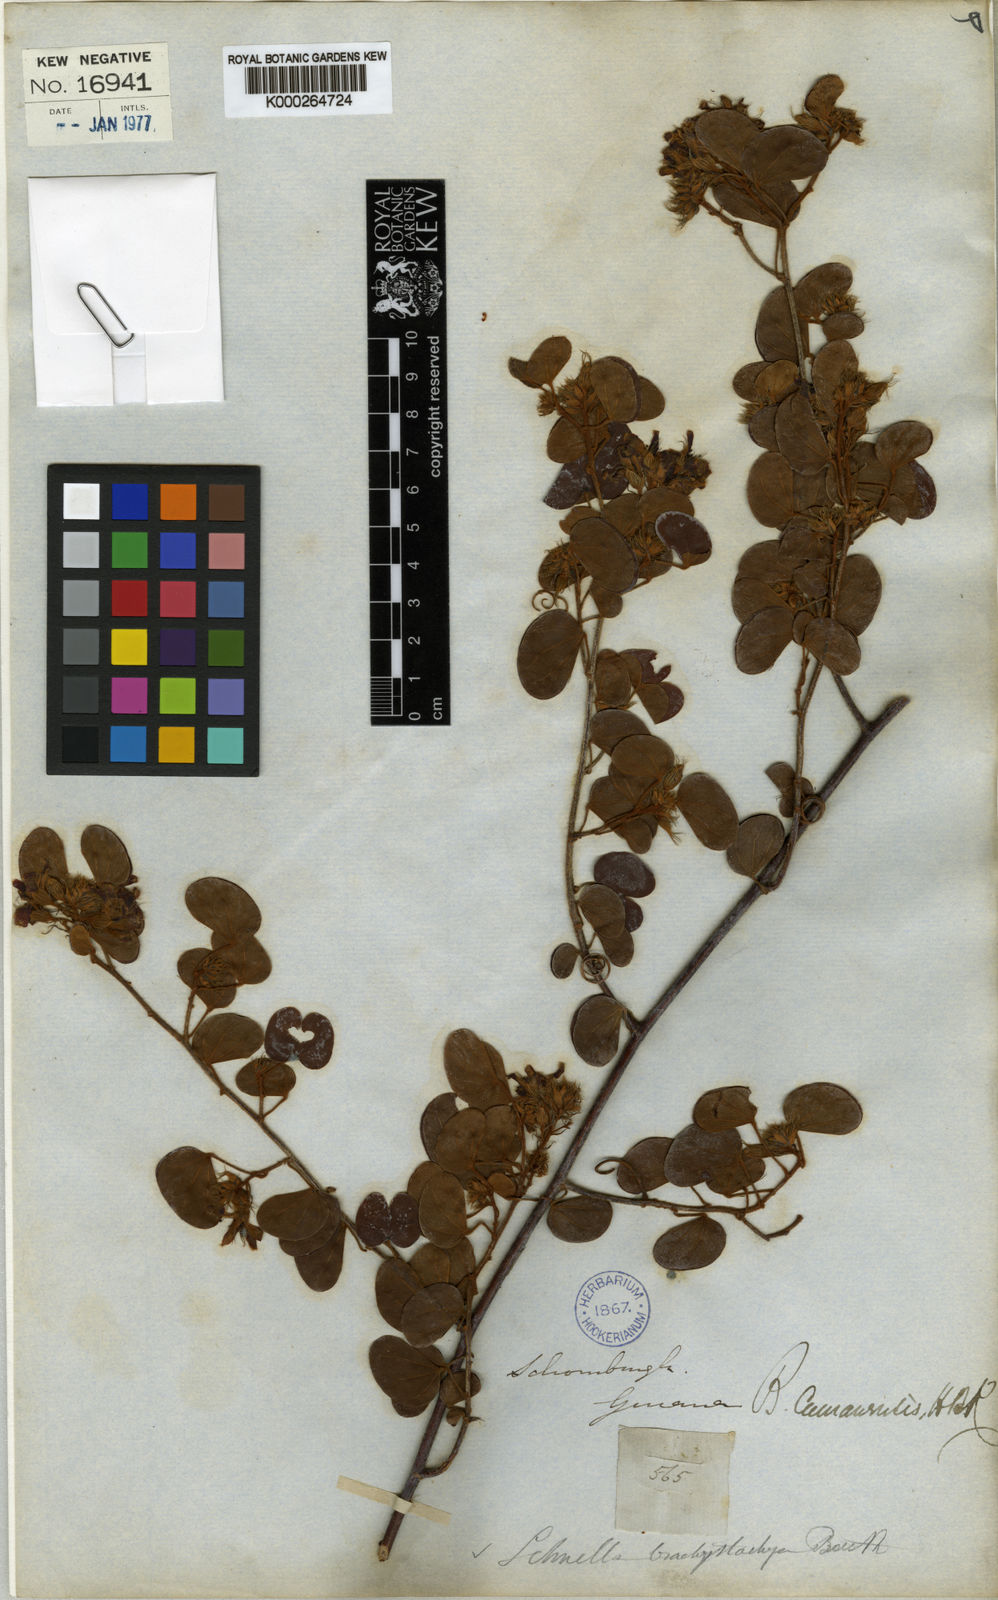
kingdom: Plantae
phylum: Tracheophyta
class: Magnoliopsida
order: Fabales
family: Fabaceae
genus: Schnella
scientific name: Schnella glabra
